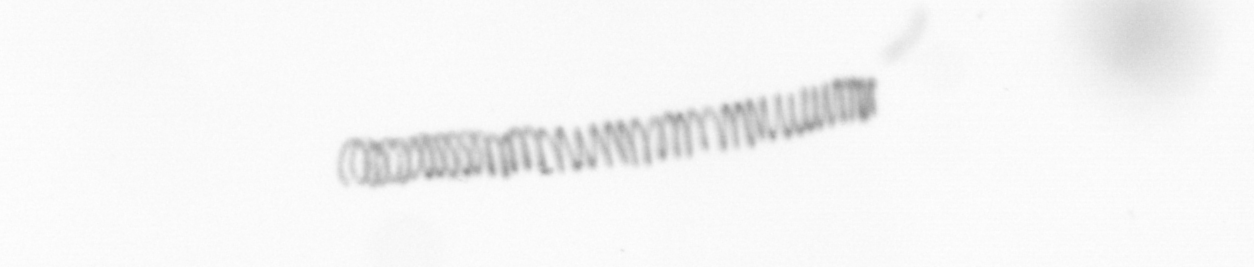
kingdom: Chromista
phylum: Ochrophyta
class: Bacillariophyceae
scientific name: Bacillariophyceae
